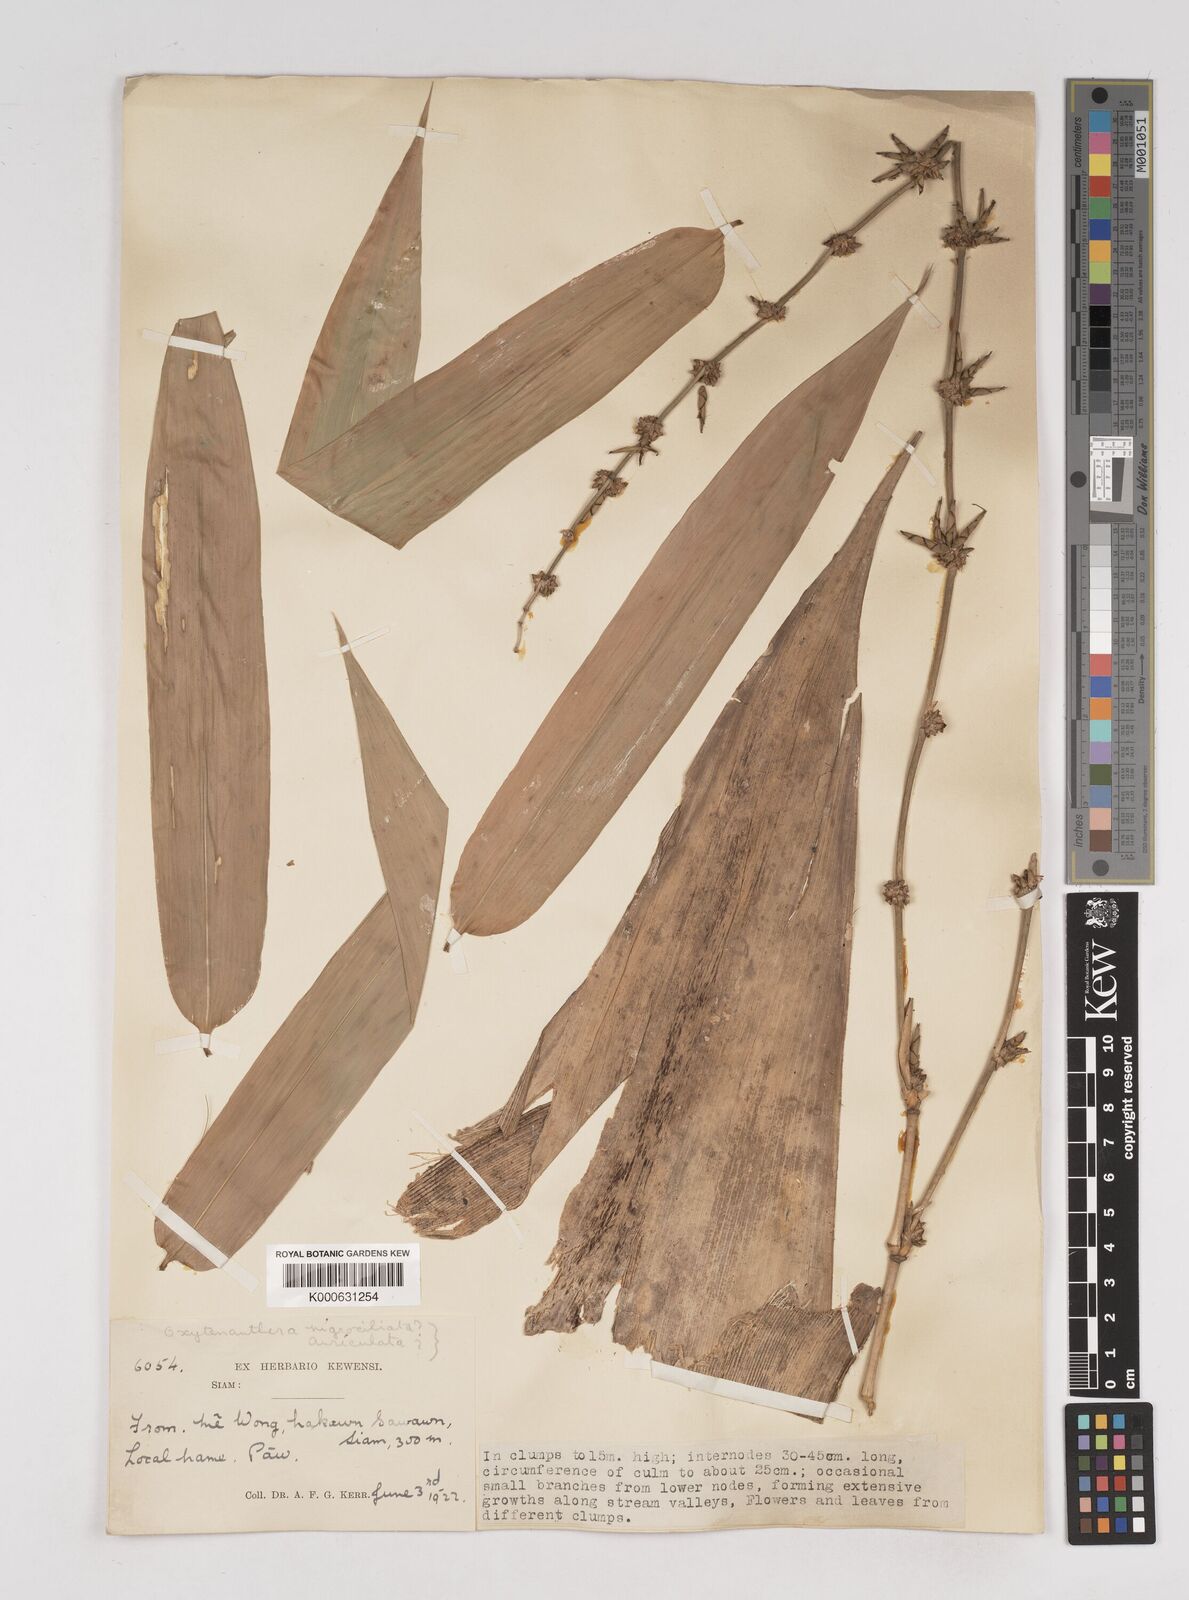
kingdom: Plantae
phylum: Tracheophyta
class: Liliopsida
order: Poales
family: Poaceae
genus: Gigantochloa
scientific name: Gigantochloa
